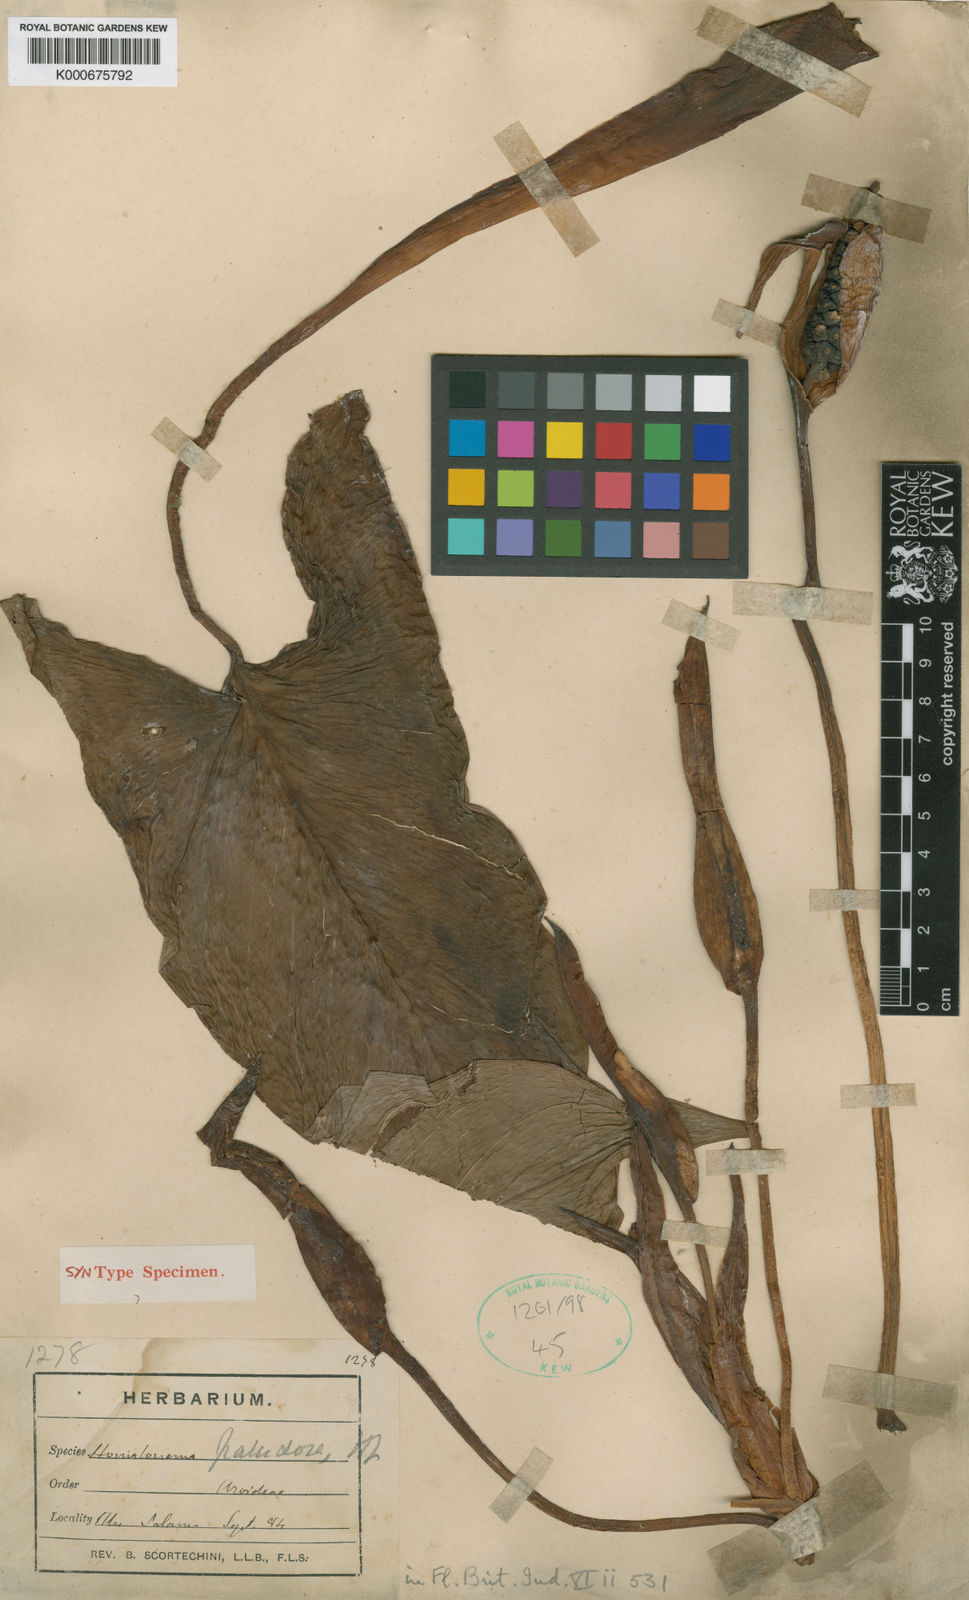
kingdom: Plantae
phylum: Tracheophyta
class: Liliopsida
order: Alismatales
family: Araceae
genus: Homalomena
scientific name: Homalomena rostrata
